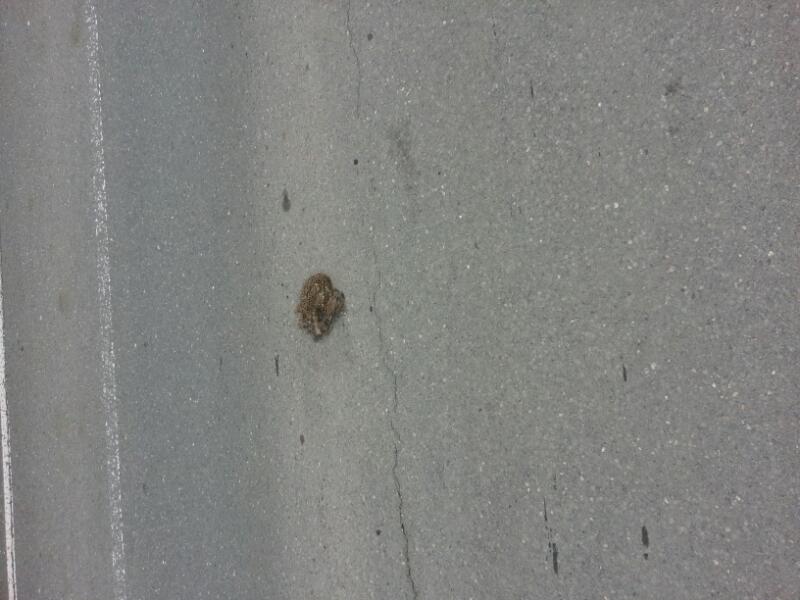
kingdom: Animalia
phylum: Chordata
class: Mammalia
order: Erinaceomorpha
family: Erinaceidae
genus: Erinaceus
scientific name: Erinaceus
